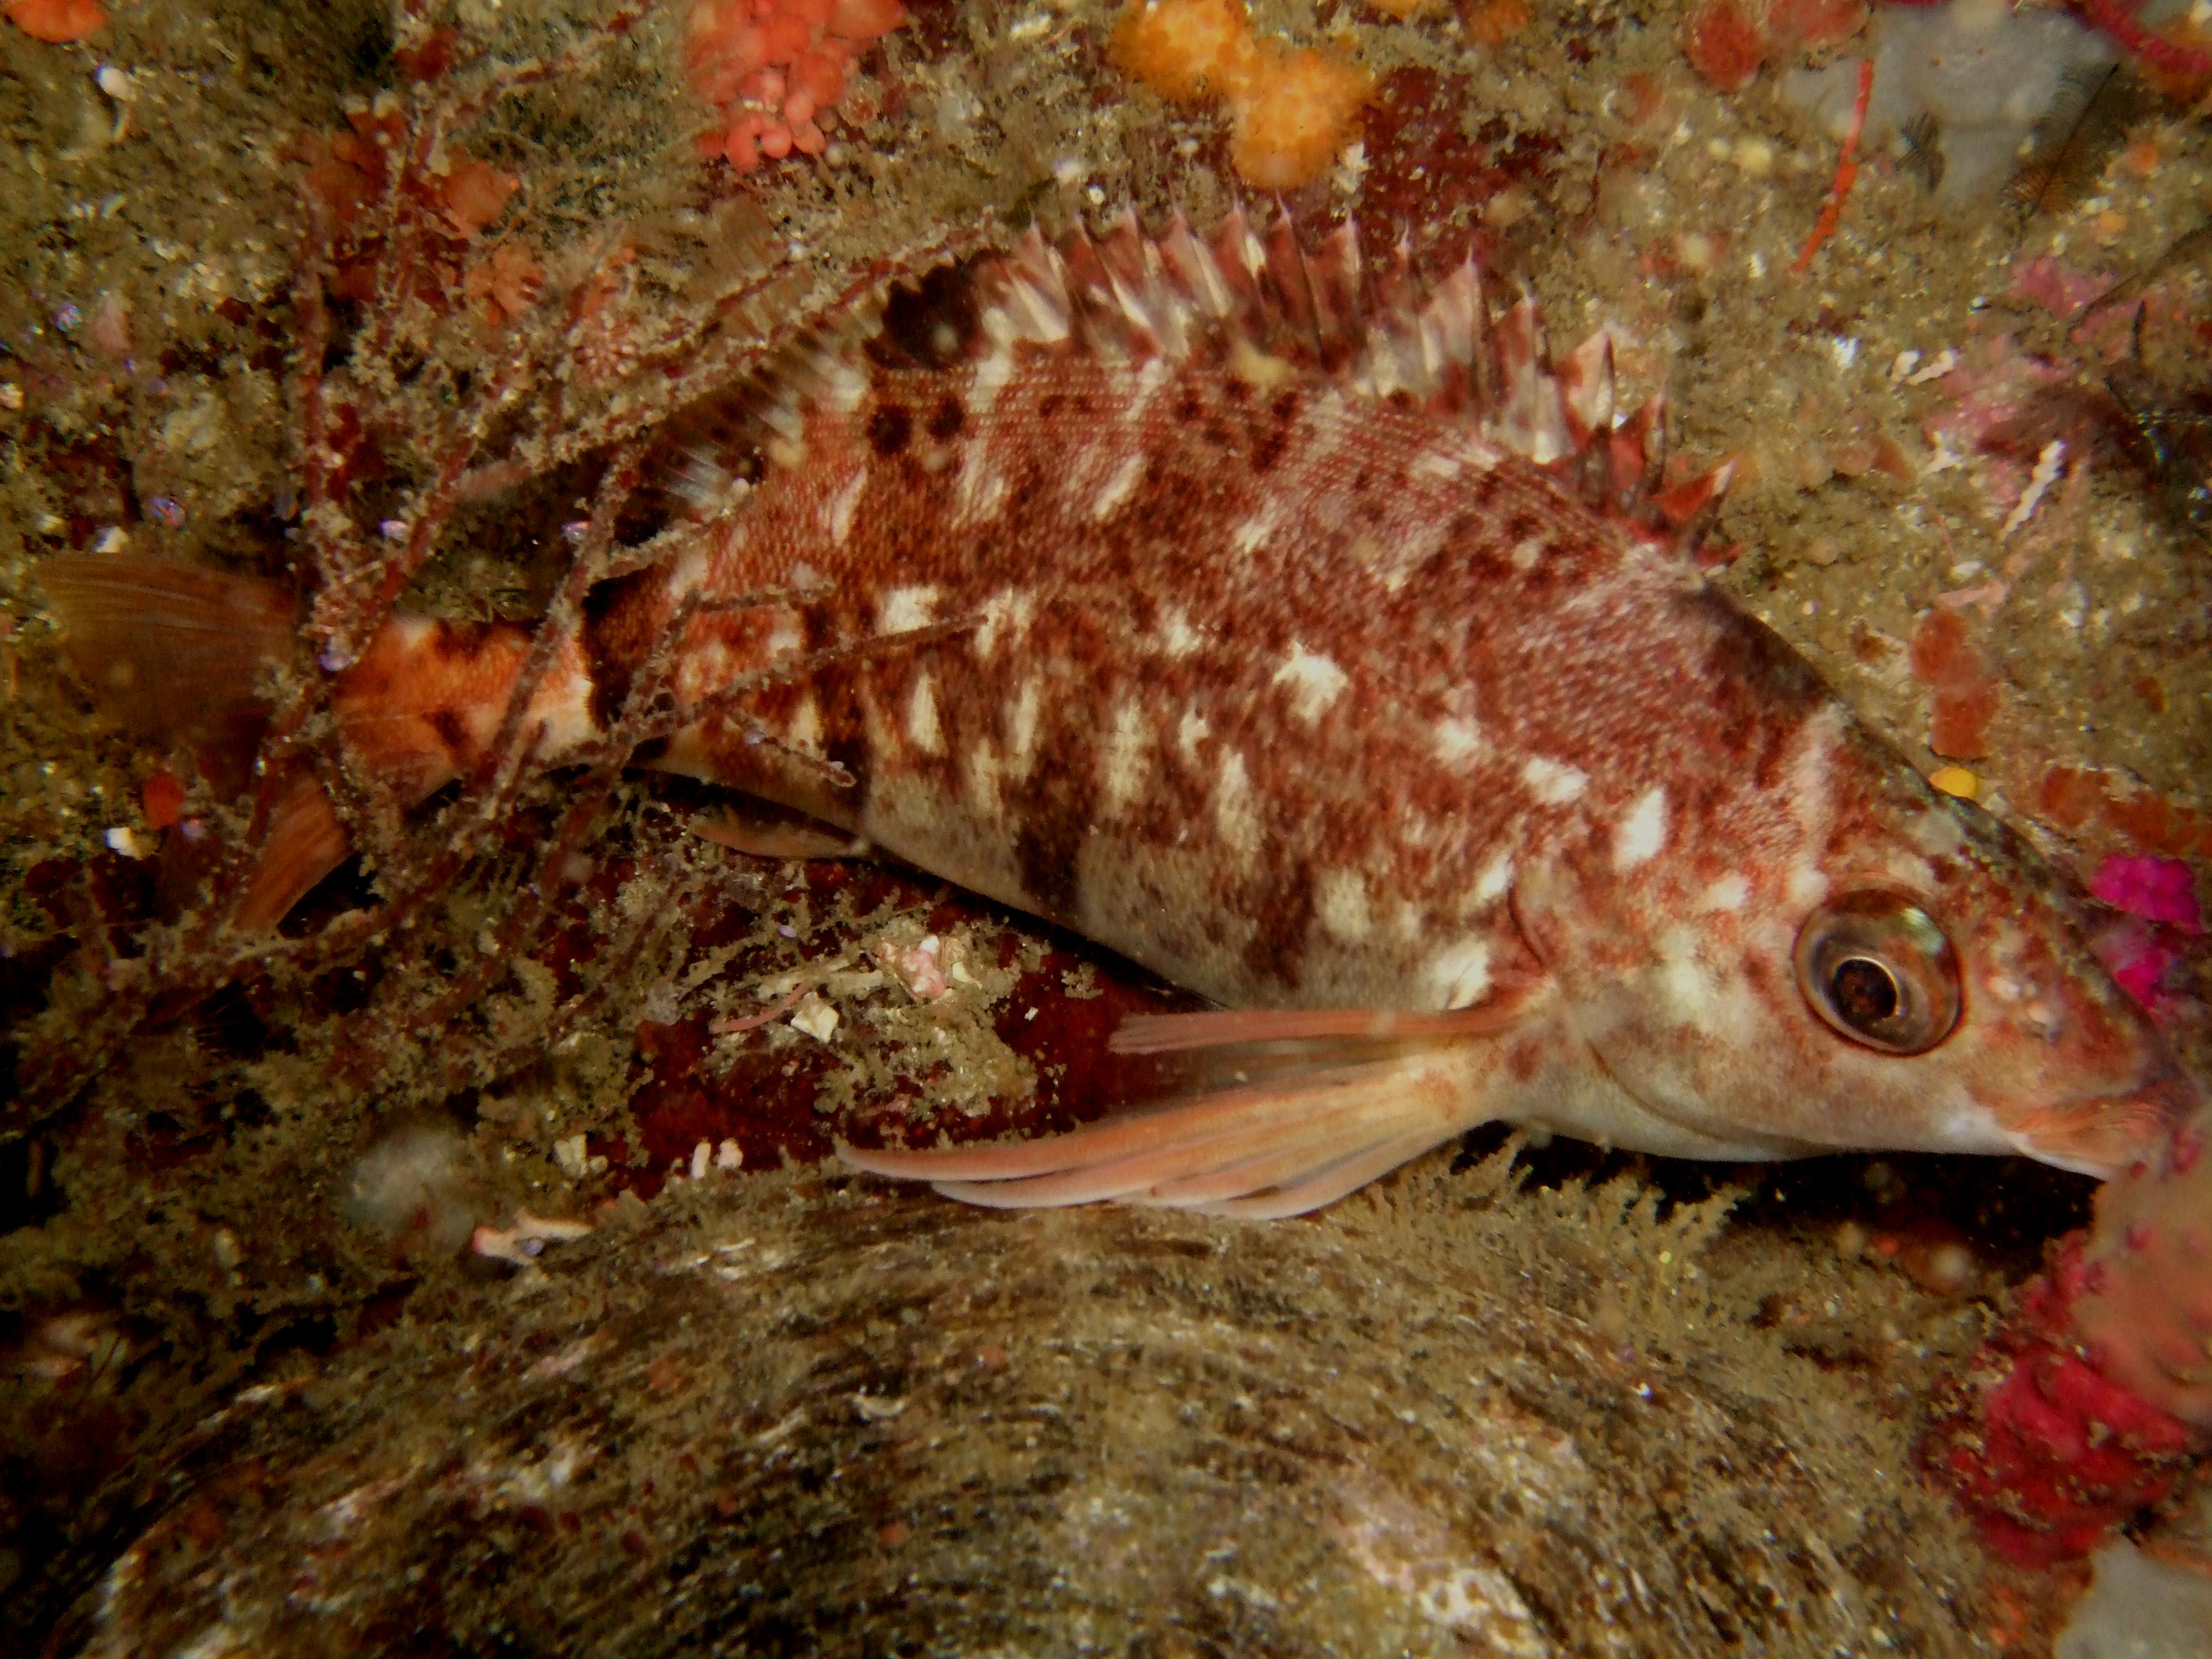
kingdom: Animalia
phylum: Chordata
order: Perciformes
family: Cheilodactylidae
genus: Cheilodactylus
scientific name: Cheilodactylus
